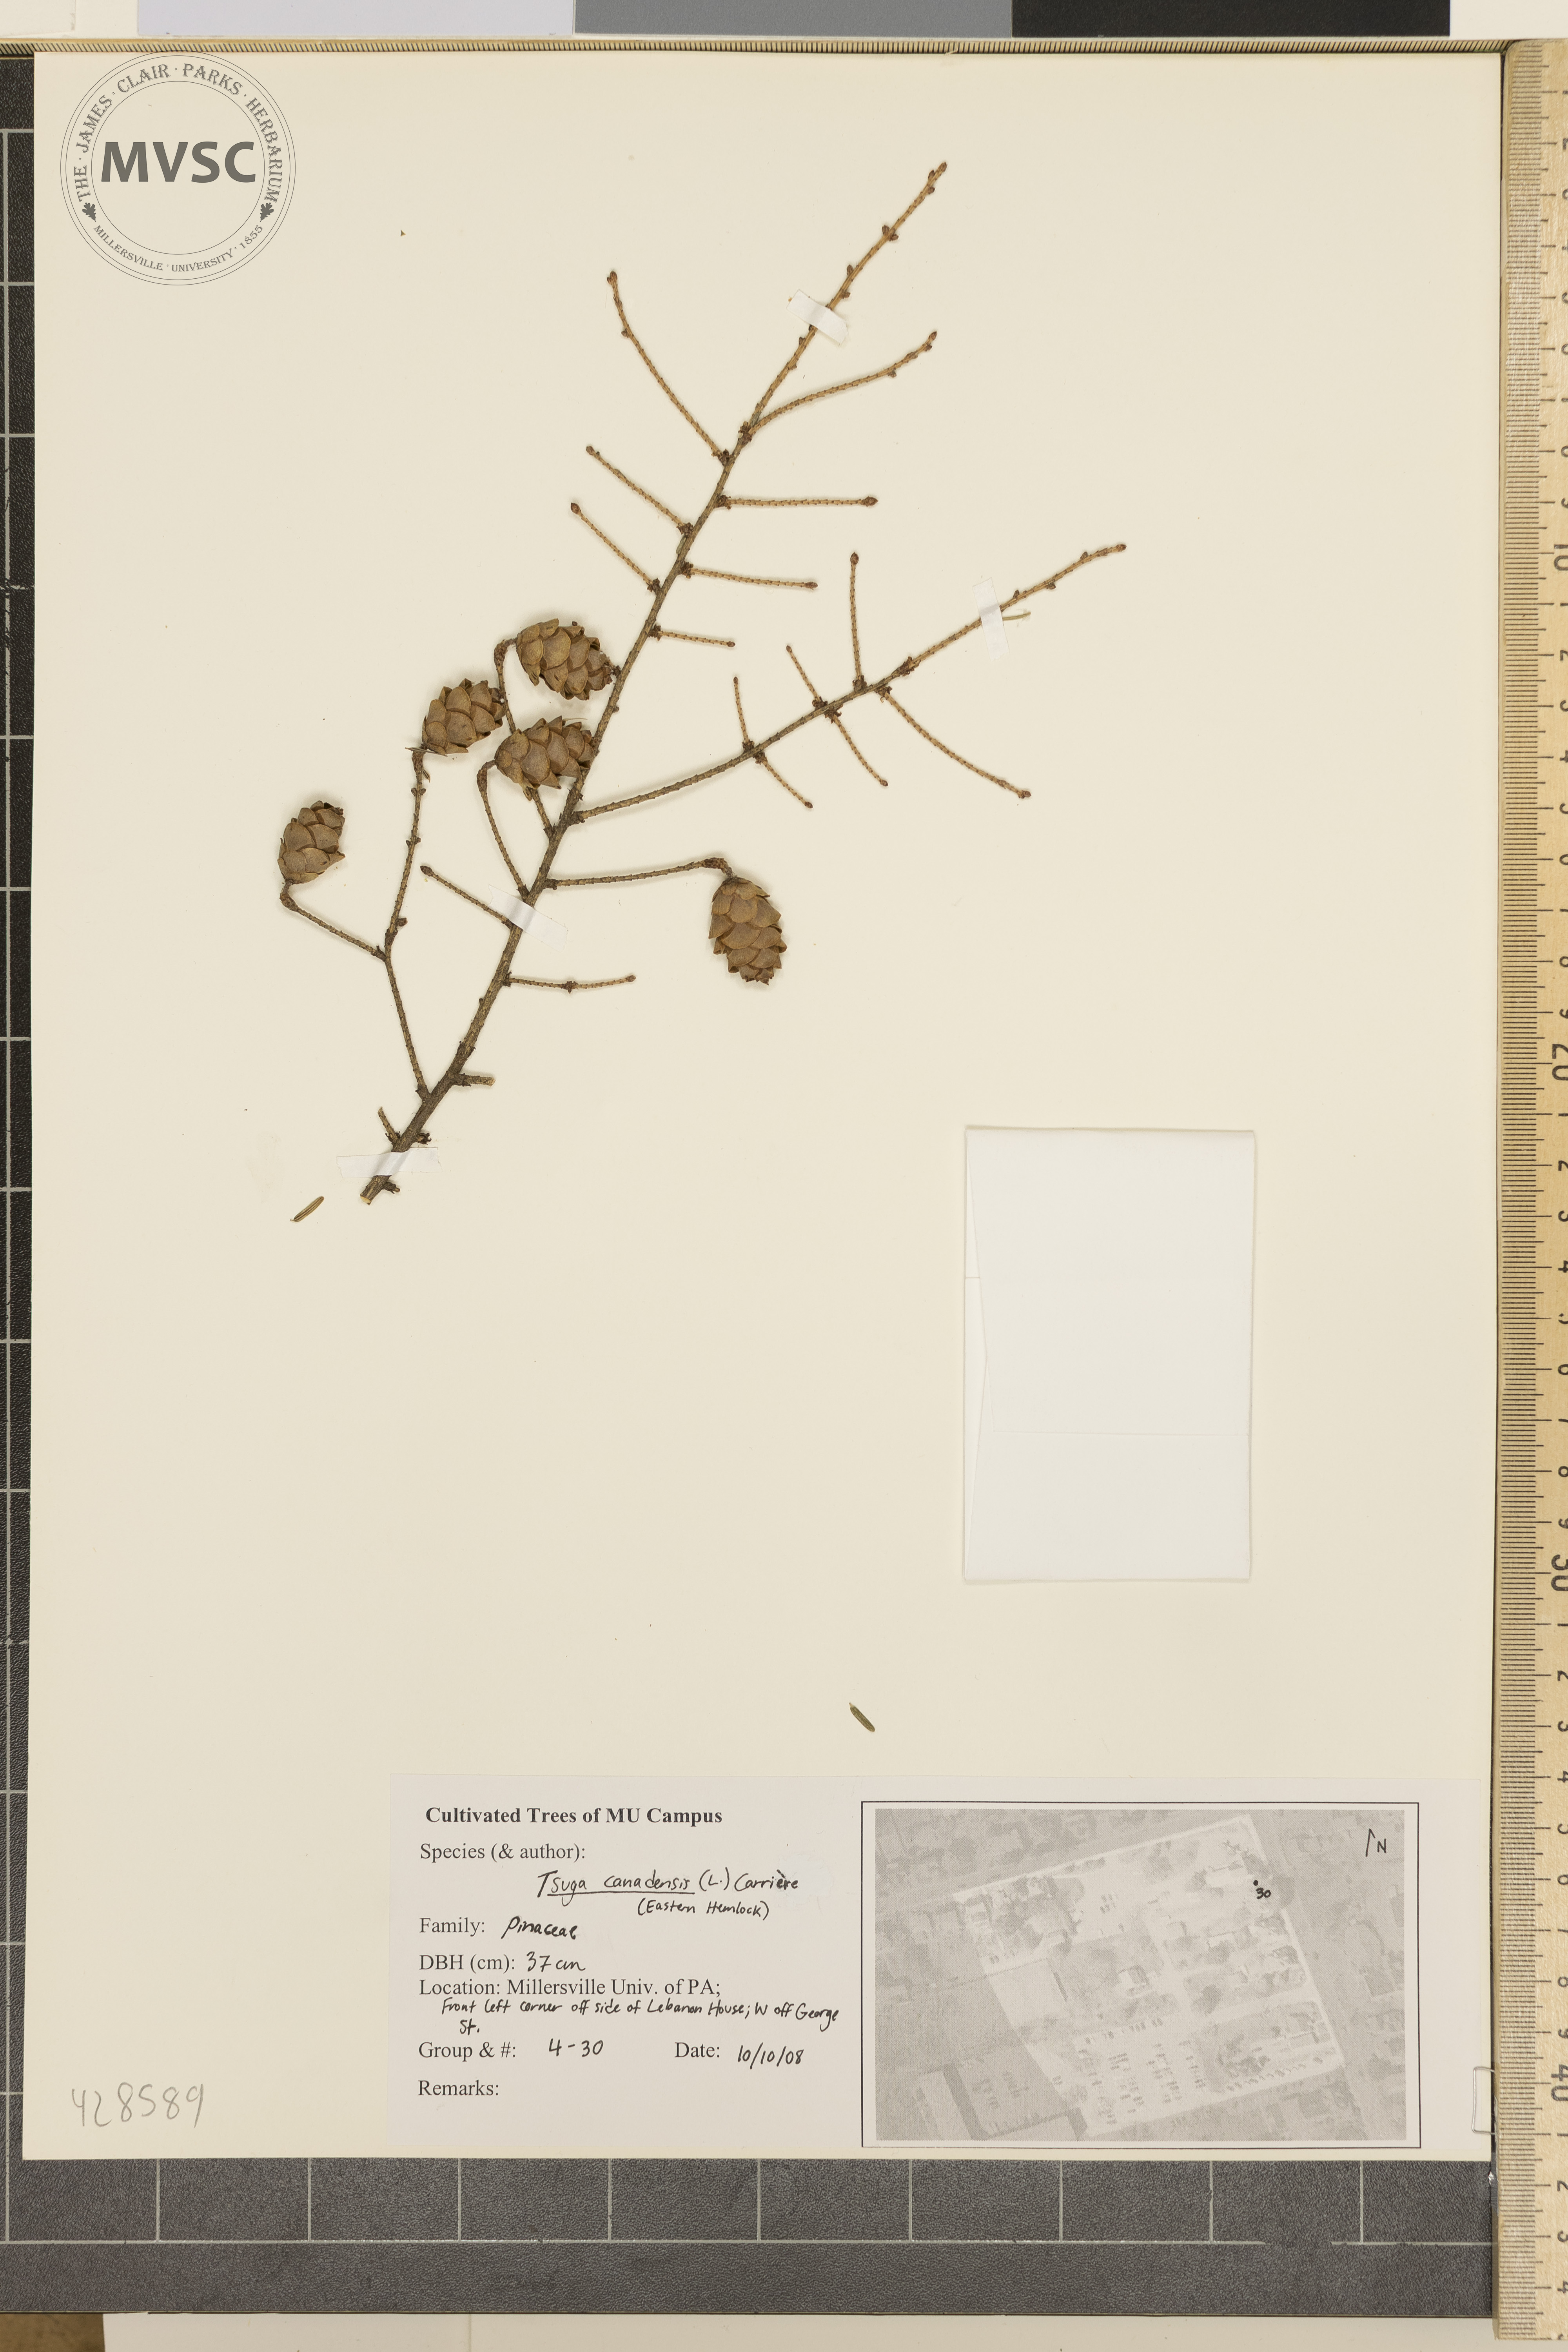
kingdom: Plantae
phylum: Tracheophyta
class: Pinopsida
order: Pinales
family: Pinaceae
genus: Tsuga
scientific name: Tsuga canadensis
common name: Canadian Hemlock
